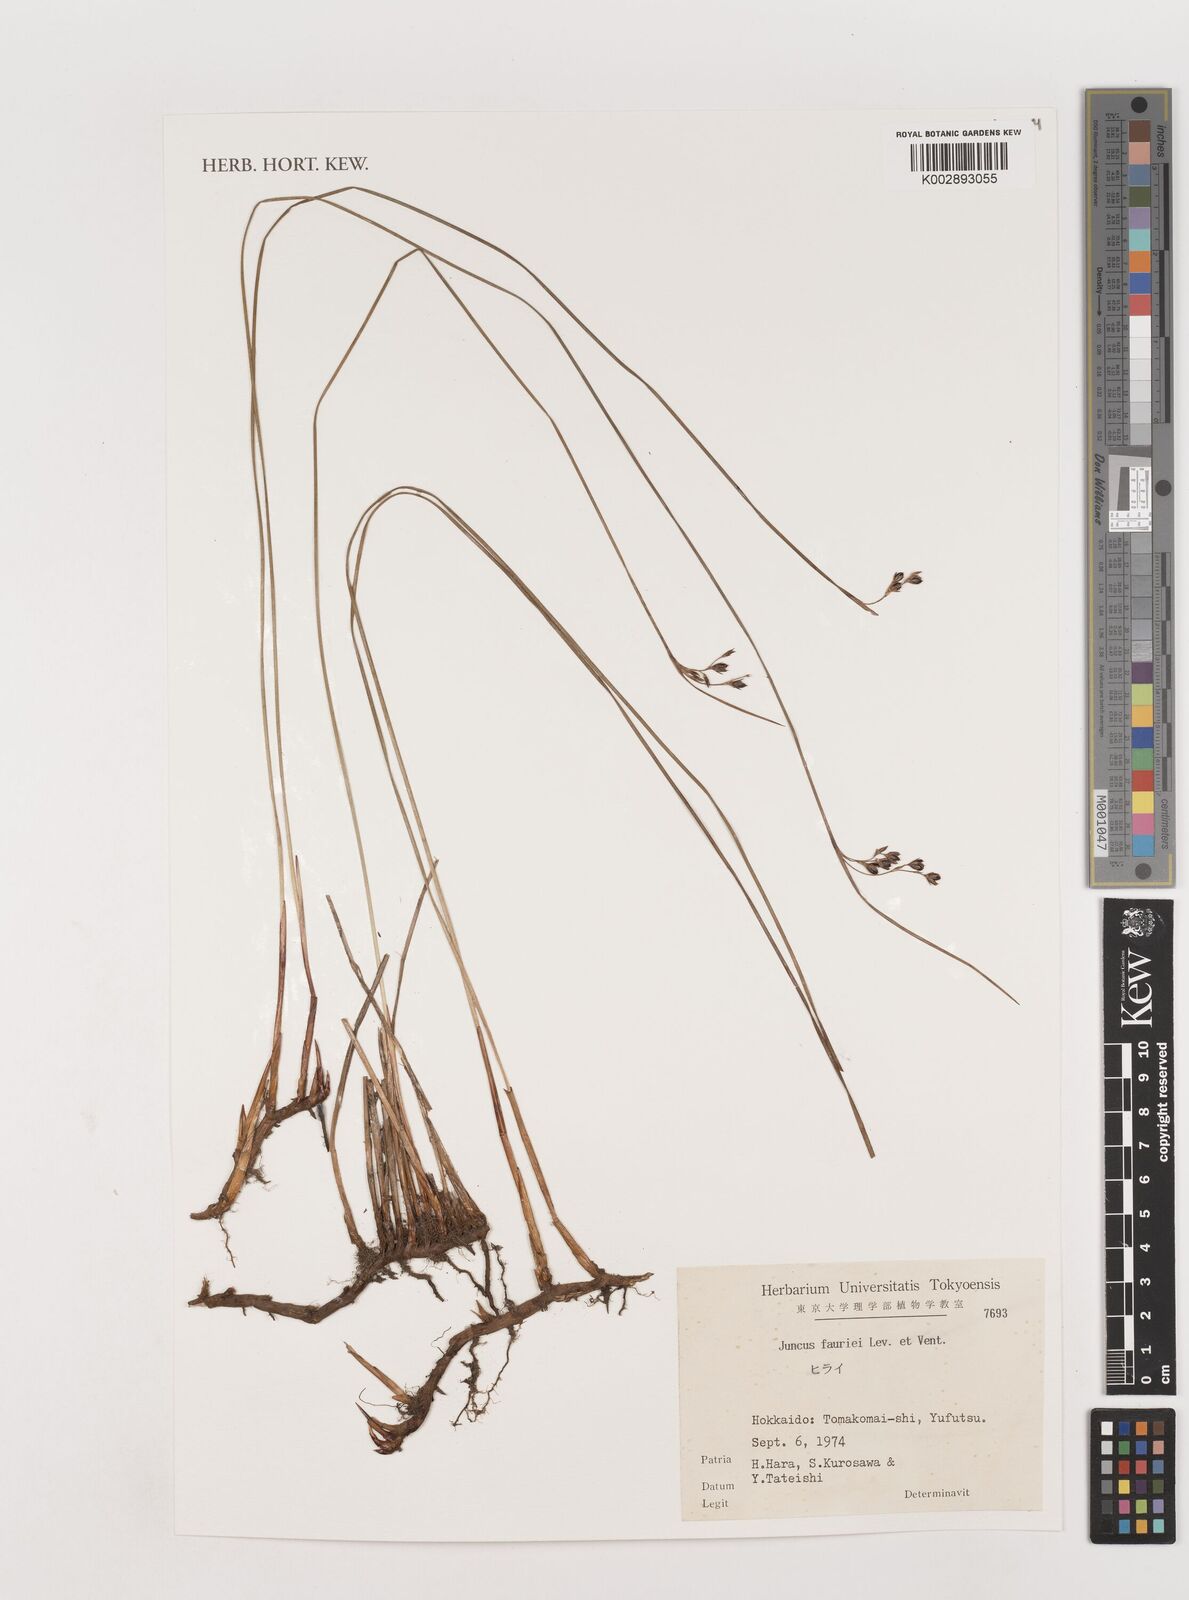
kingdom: Plantae
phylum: Tracheophyta
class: Liliopsida
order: Poales
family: Juncaceae
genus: Juncus
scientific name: Juncus fauriei
